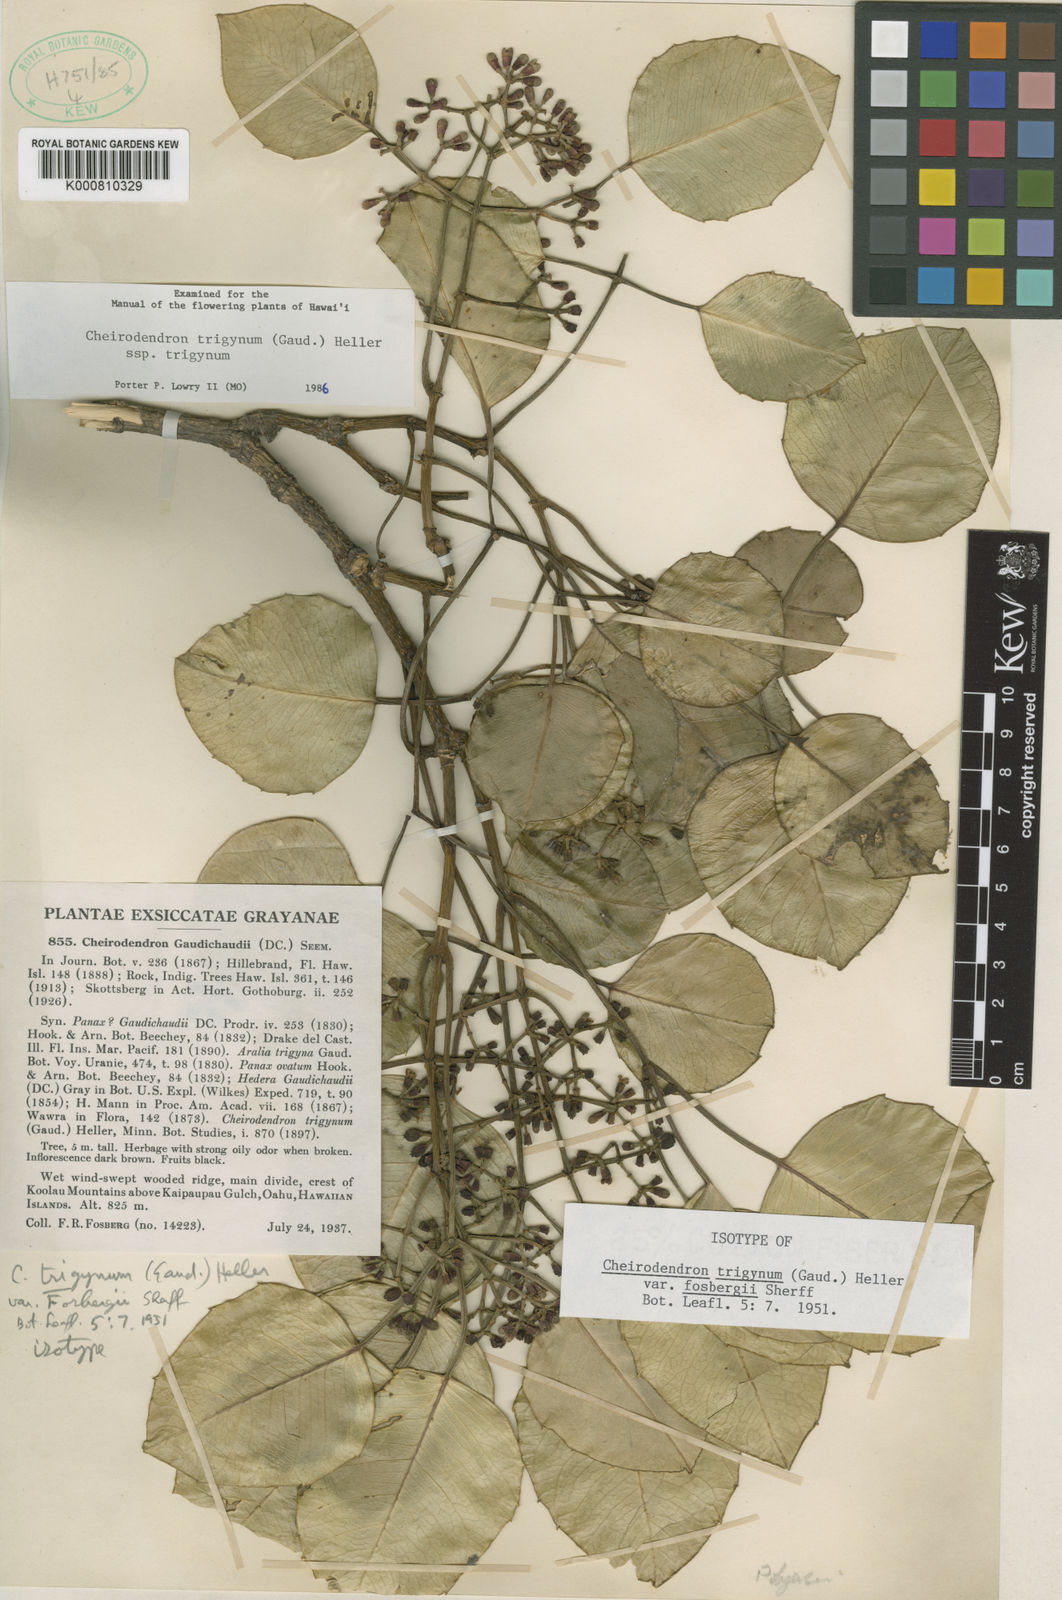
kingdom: Plantae
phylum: Tracheophyta
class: Magnoliopsida
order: Apiales
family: Araliaceae
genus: Cheirodendron
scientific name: Cheirodendron trigynum
